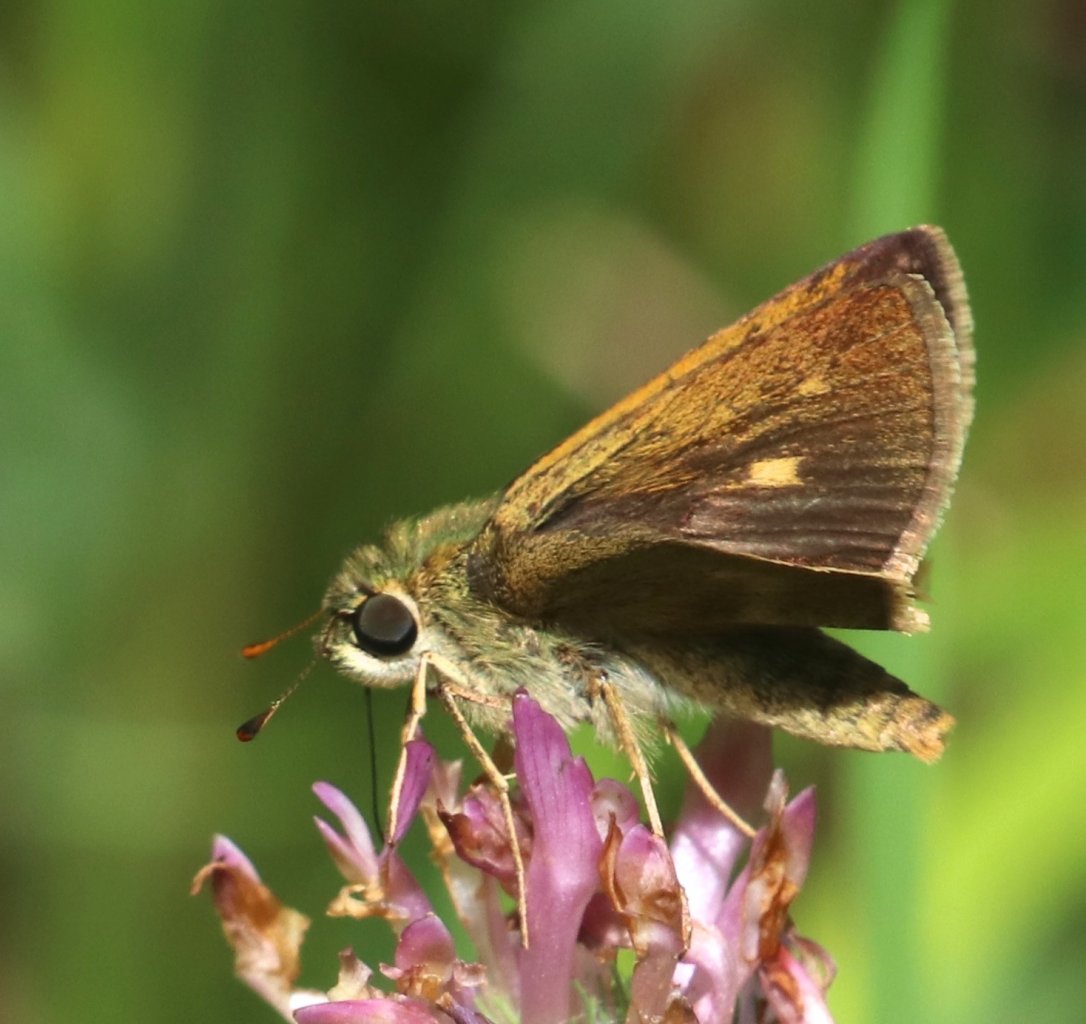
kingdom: Animalia
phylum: Arthropoda
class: Insecta
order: Lepidoptera
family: Hesperiidae
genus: Polites
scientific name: Polites egeremet
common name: Northern Broken-Dash
